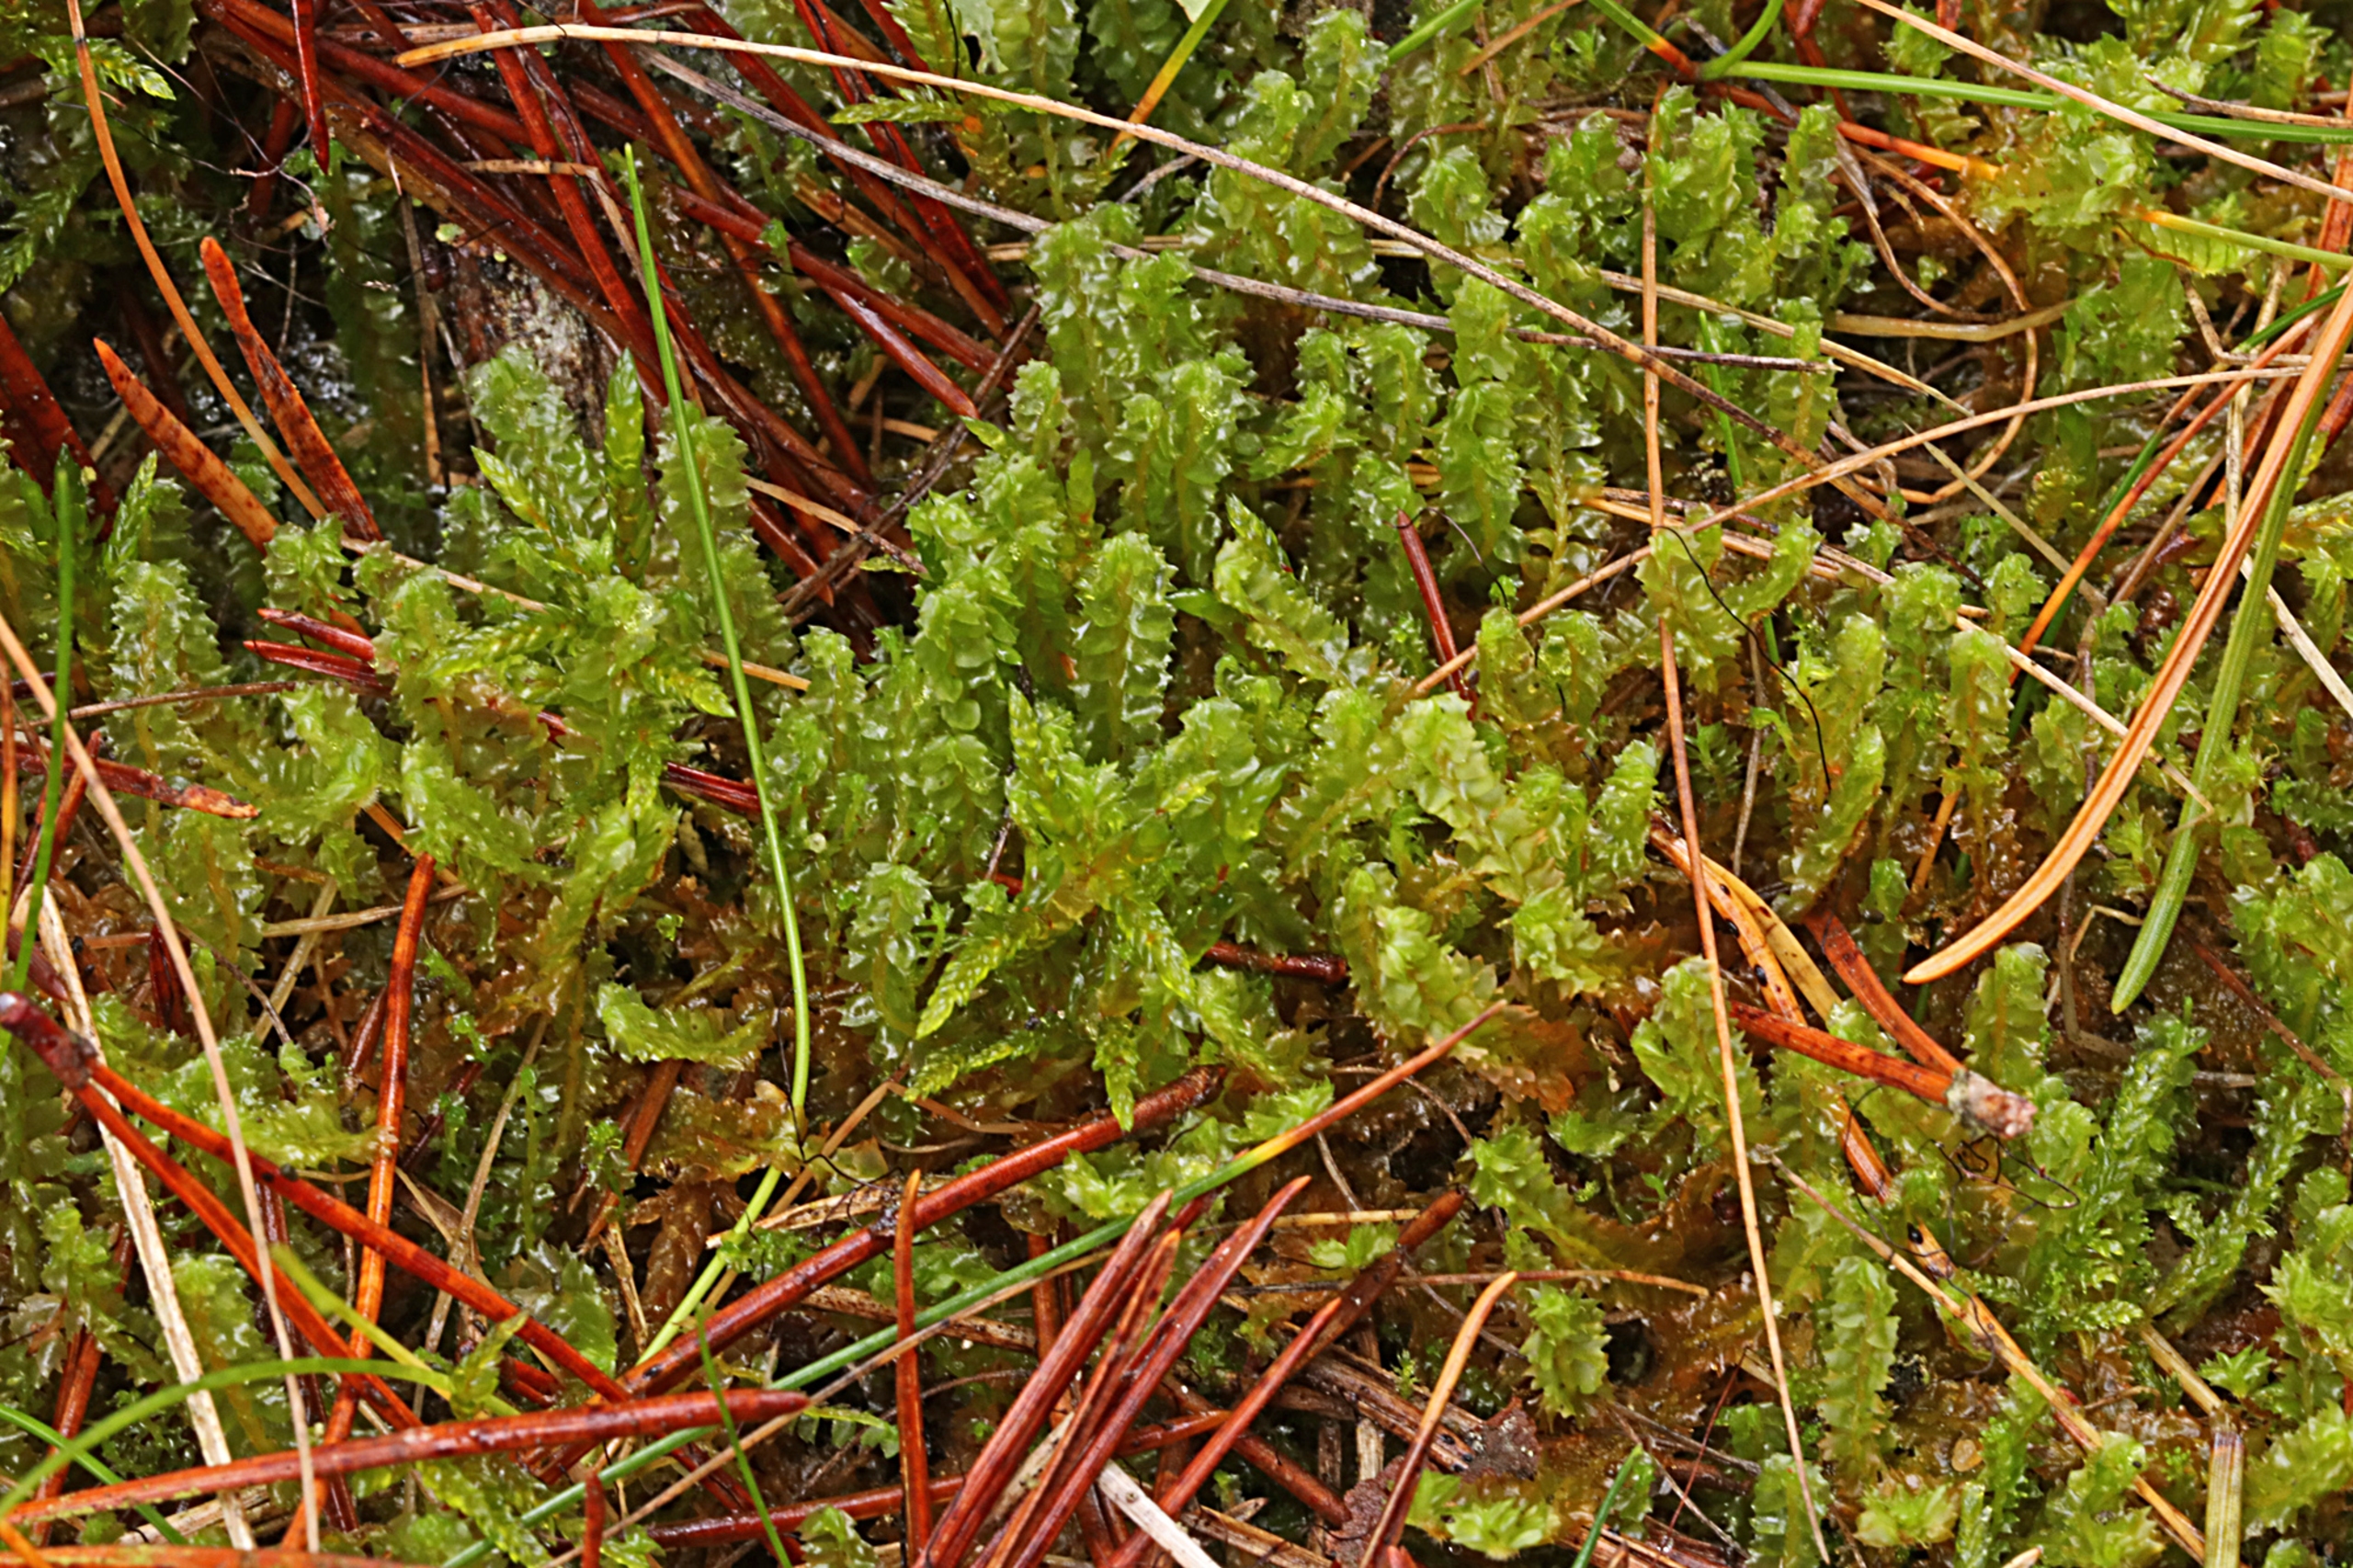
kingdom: Plantae
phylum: Marchantiophyta
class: Jungermanniopsida
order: Jungermanniales
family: Anastrophyllaceae
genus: Barbilophozia
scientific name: Barbilophozia barbata
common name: Skægget flerfligmos
